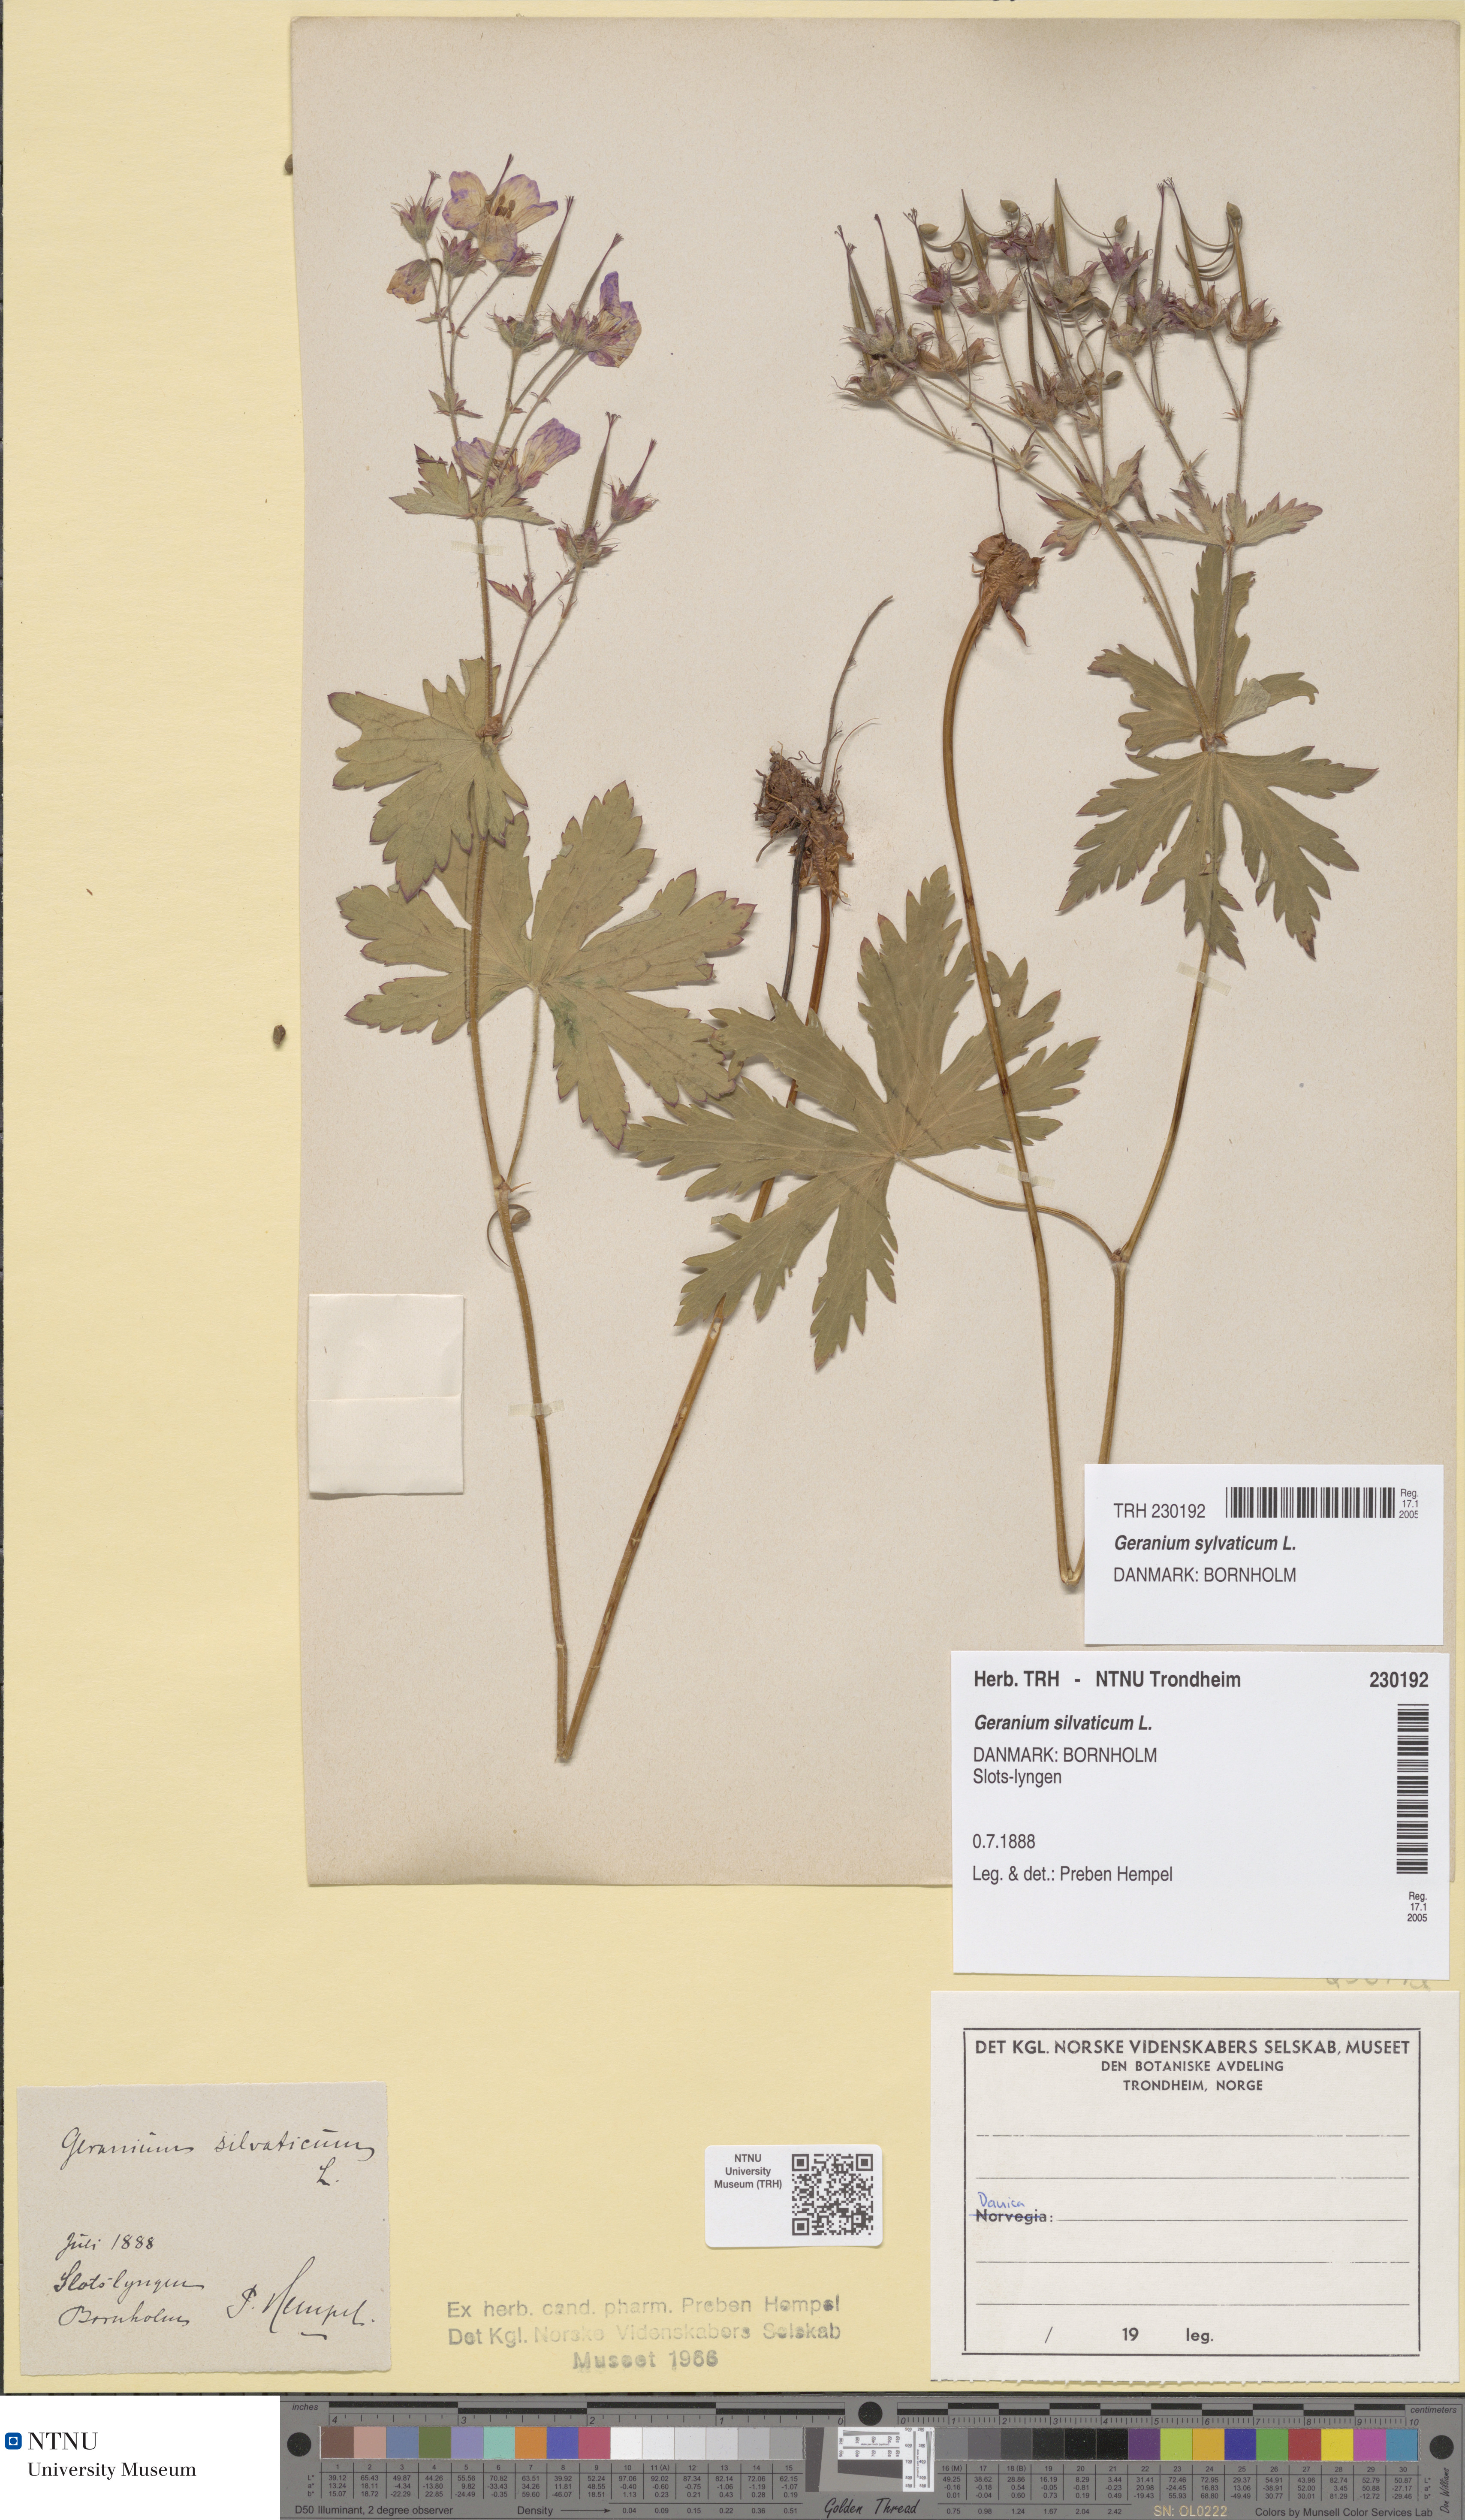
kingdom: Plantae
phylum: Tracheophyta
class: Magnoliopsida
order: Geraniales
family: Geraniaceae
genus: Geranium
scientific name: Geranium sylvaticum
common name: Wood crane's-bill
